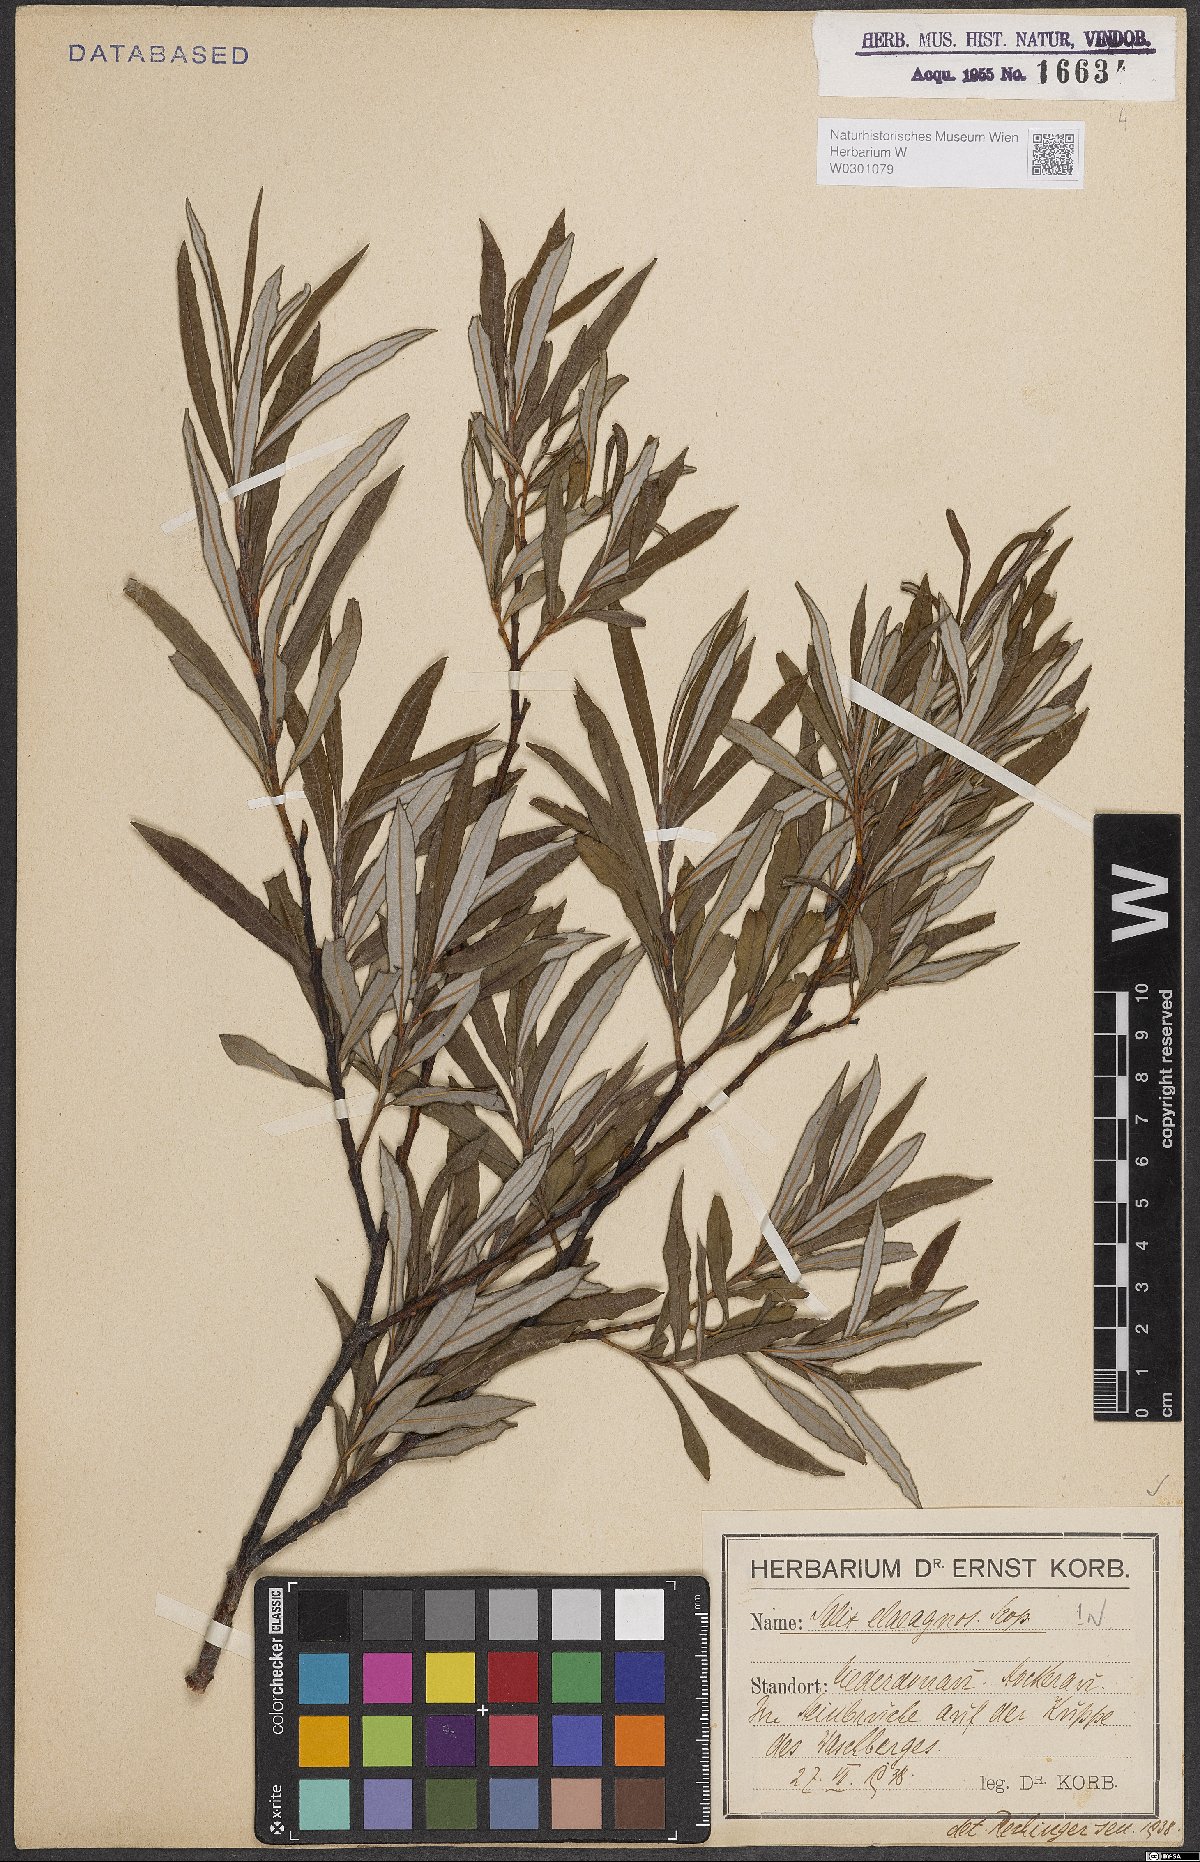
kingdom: Plantae
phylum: Tracheophyta
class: Magnoliopsida
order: Malpighiales
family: Salicaceae
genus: Salix
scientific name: Salix eleagnos
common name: Elaeagnus willow
